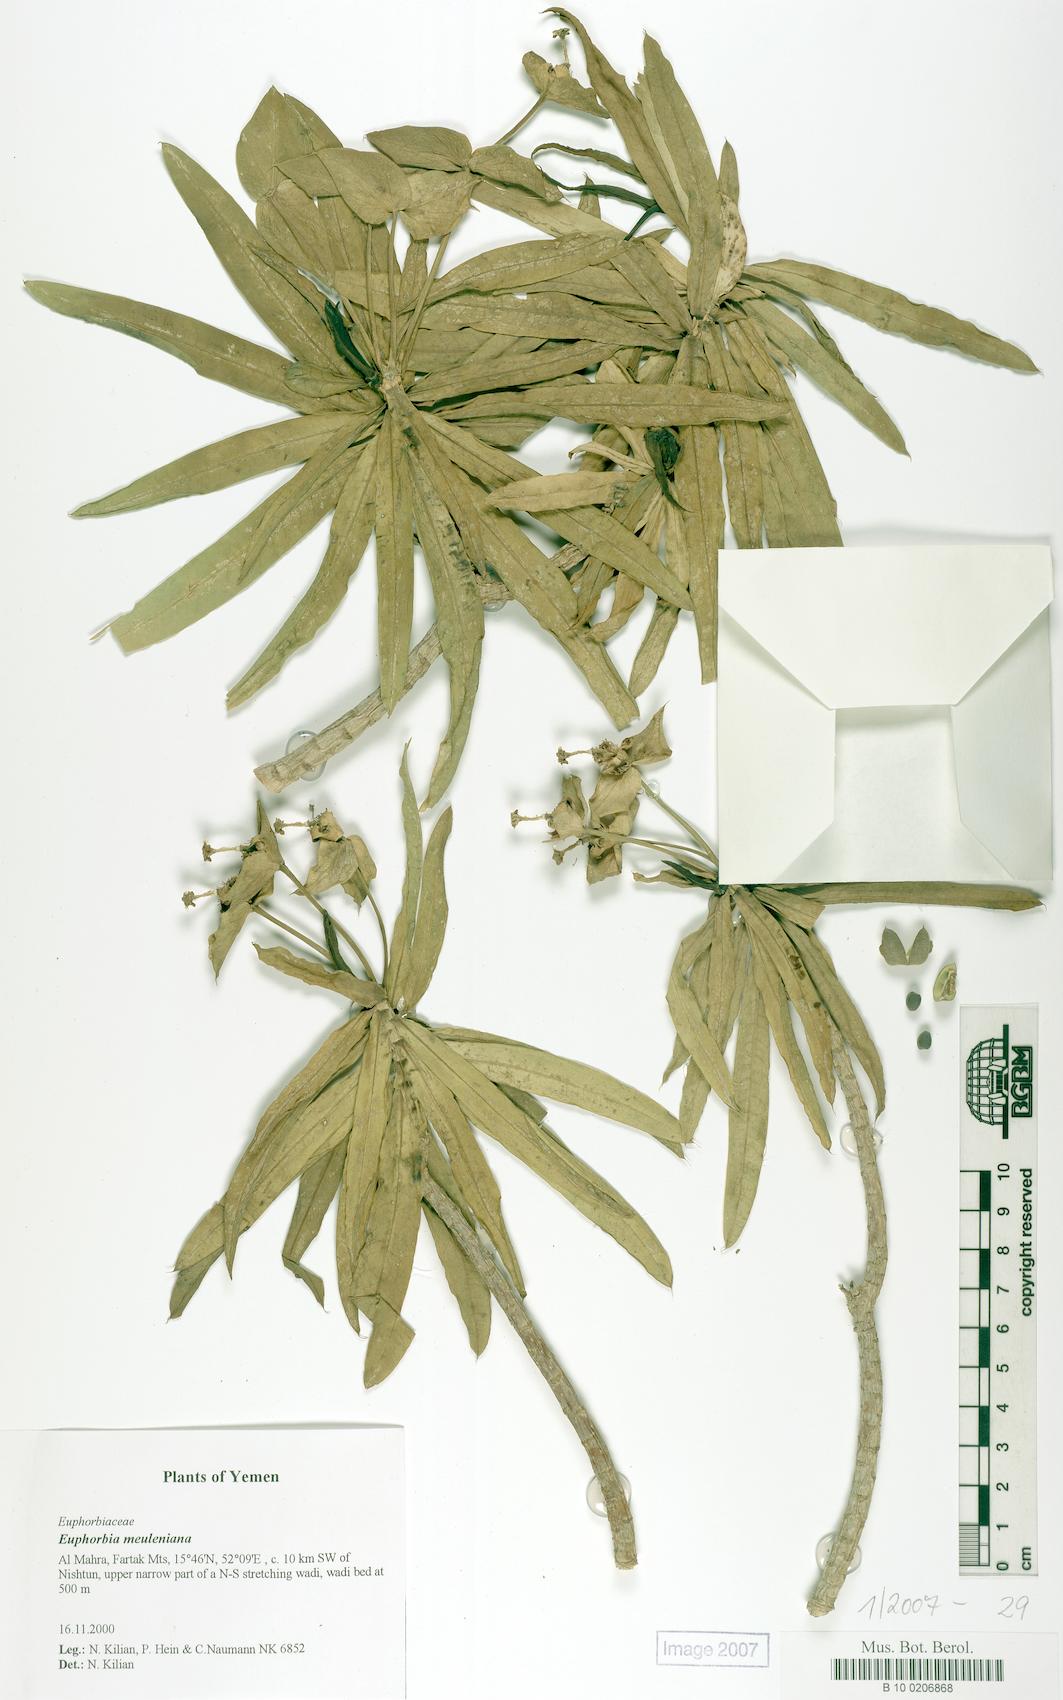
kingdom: Plantae
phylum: Tracheophyta
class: Magnoliopsida
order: Malpighiales
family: Euphorbiaceae
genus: Euphorbia
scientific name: Euphorbia meuleniana
